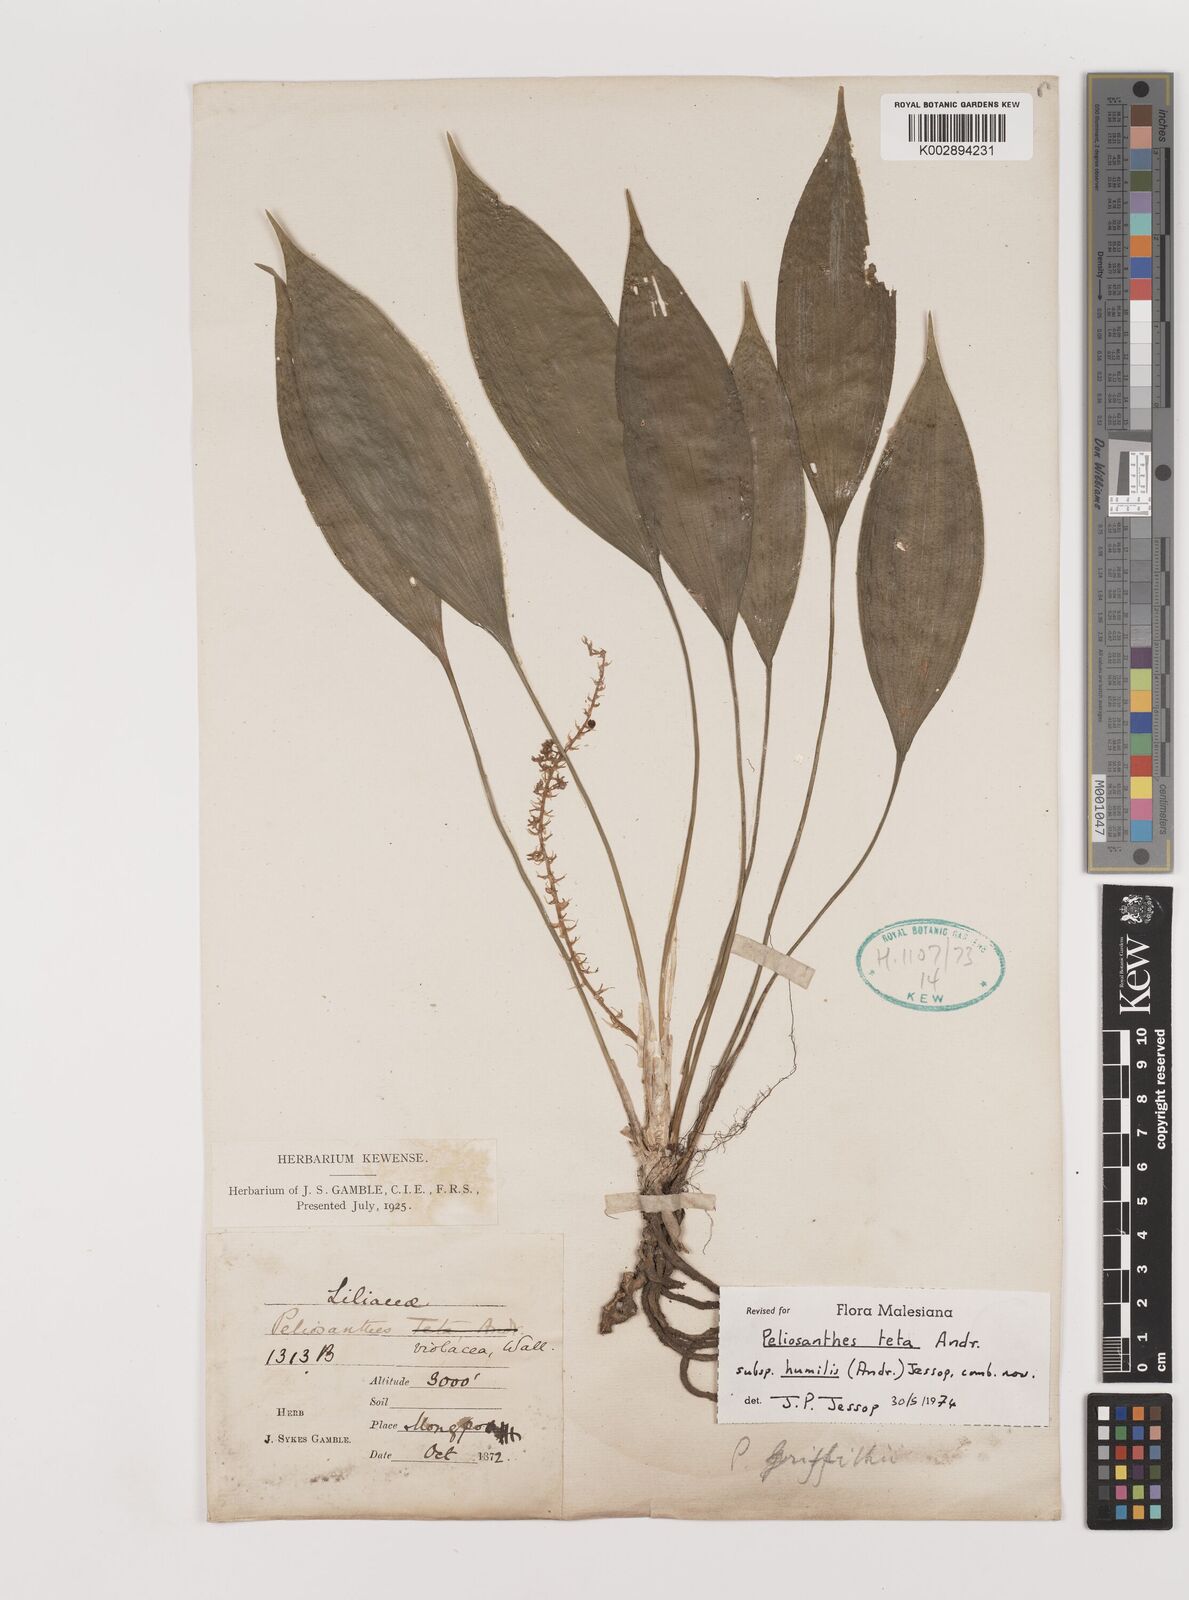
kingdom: Plantae
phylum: Tracheophyta
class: Liliopsida
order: Asparagales
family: Asparagaceae
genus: Peliosanthes
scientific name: Peliosanthes teta
